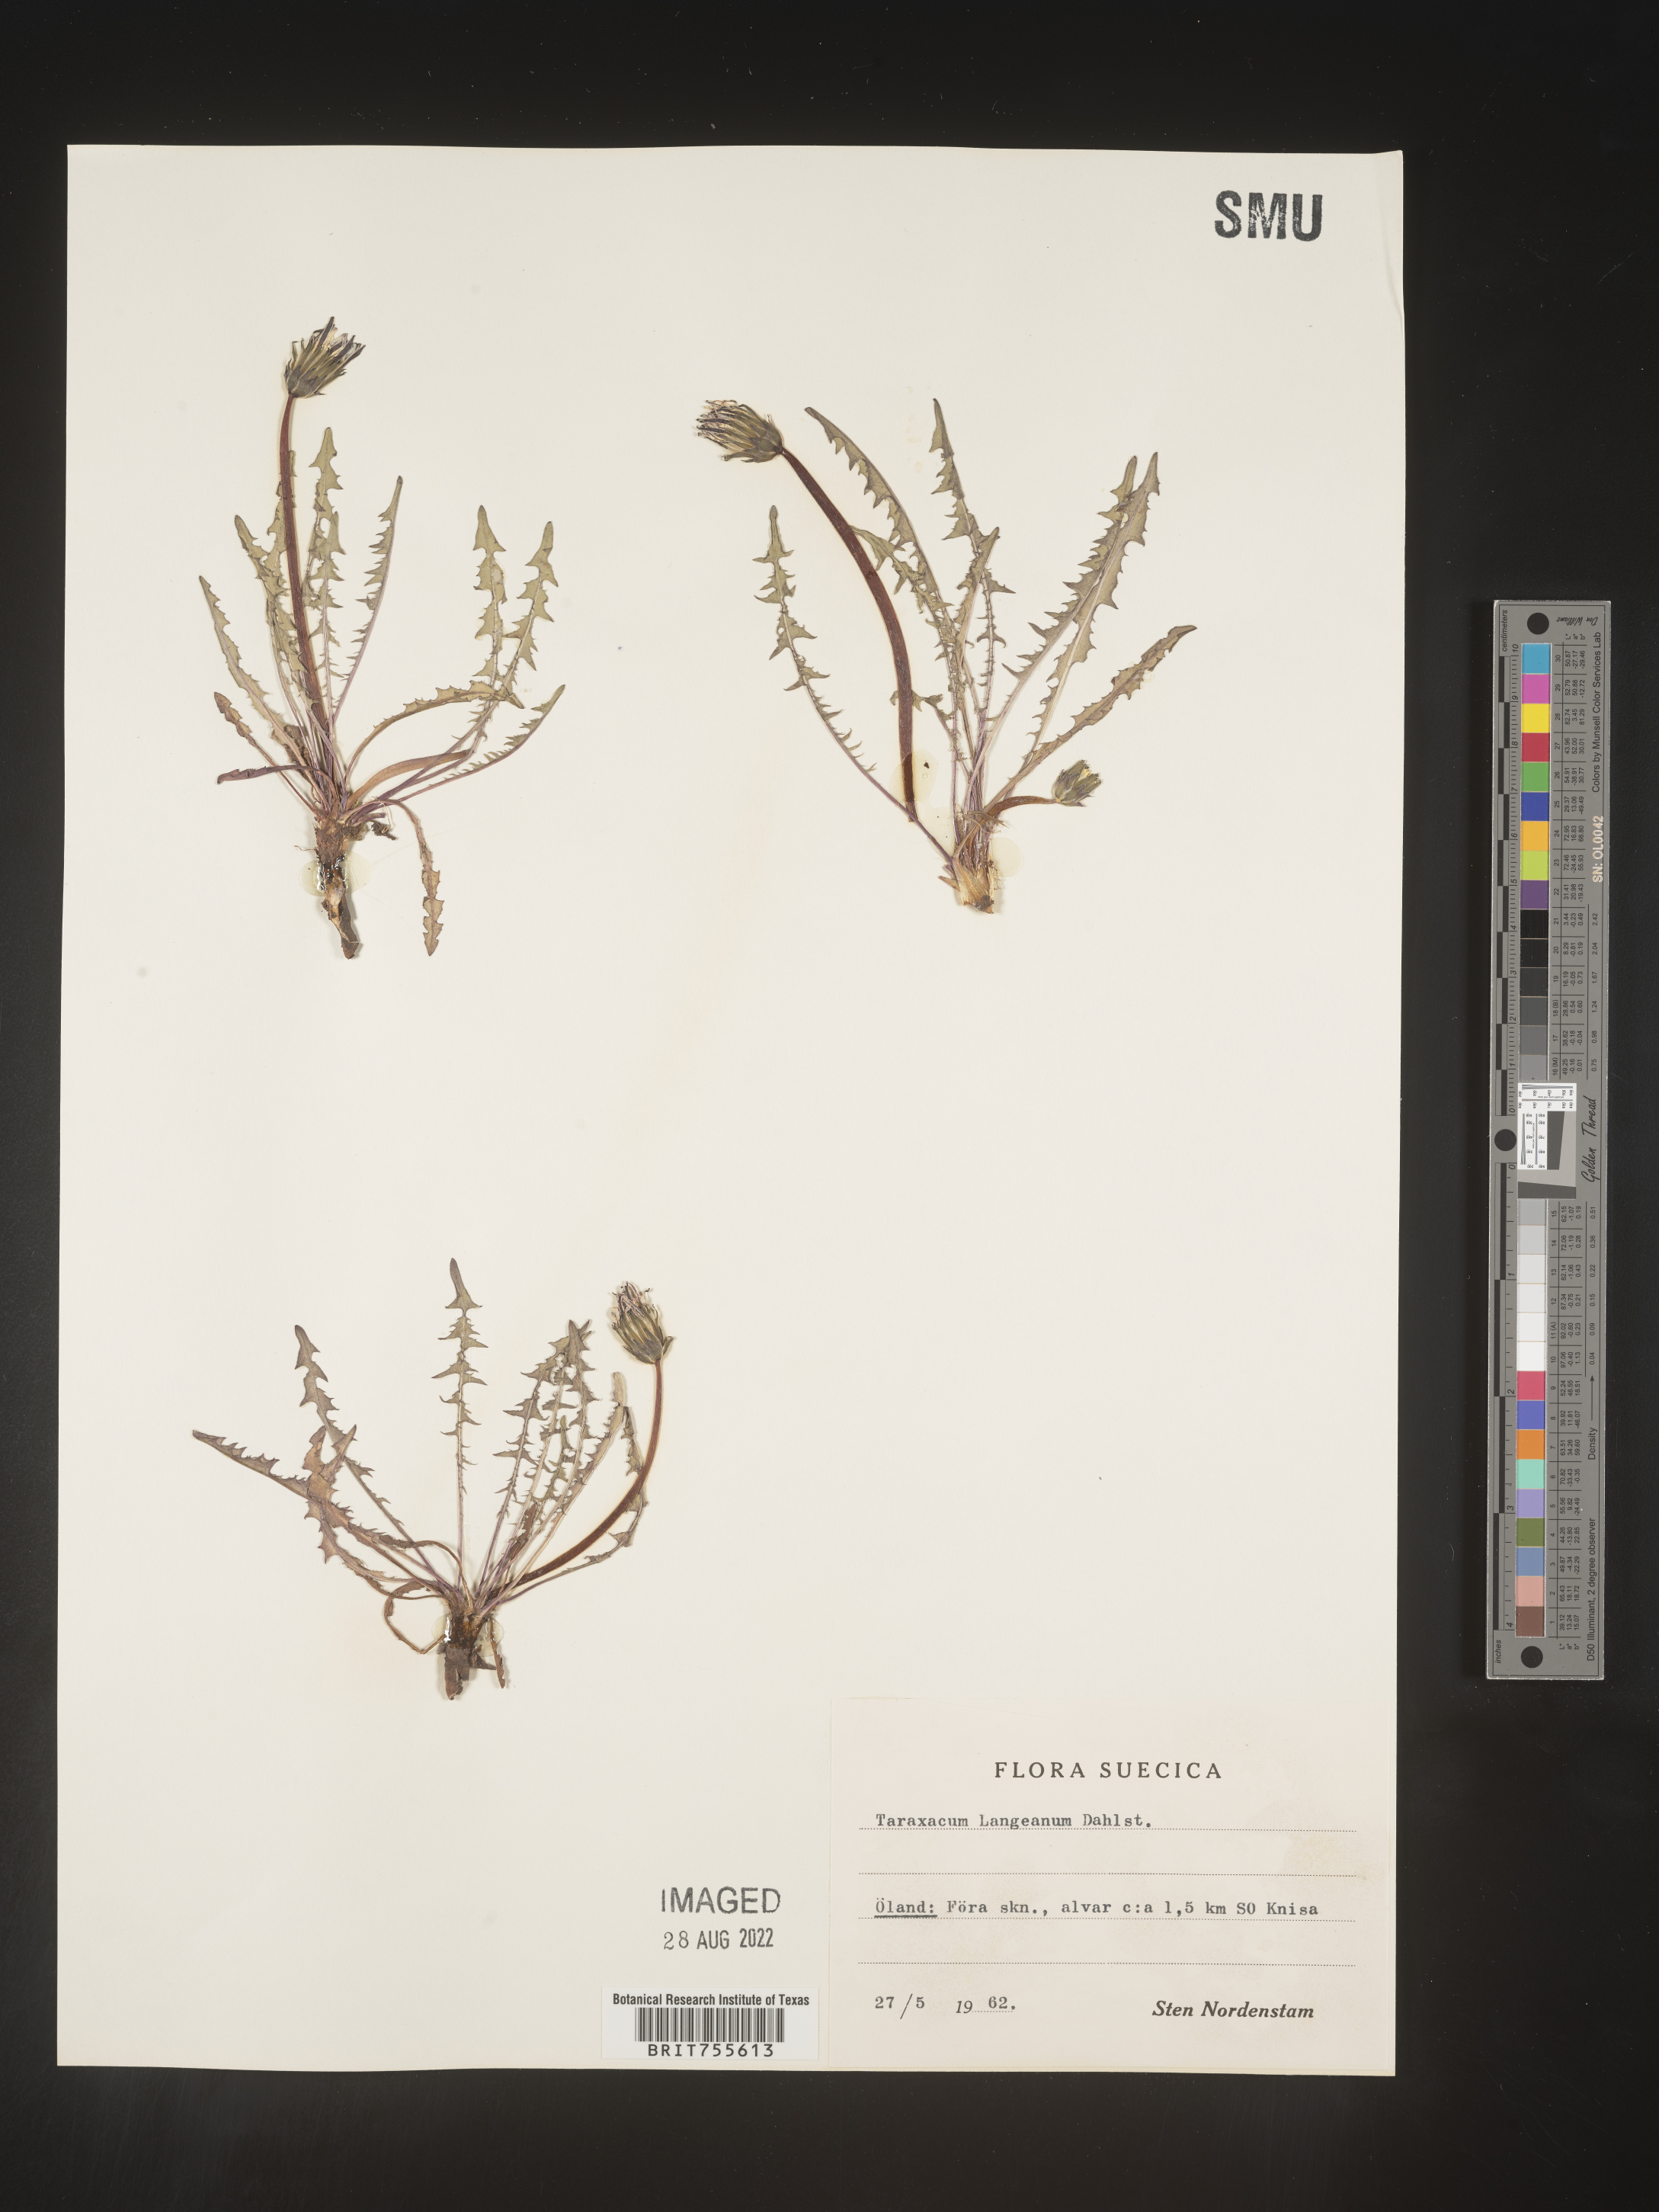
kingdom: Plantae
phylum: Tracheophyta
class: Magnoliopsida
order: Asterales
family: Asteraceae
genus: Taraxacum
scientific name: Taraxacum
